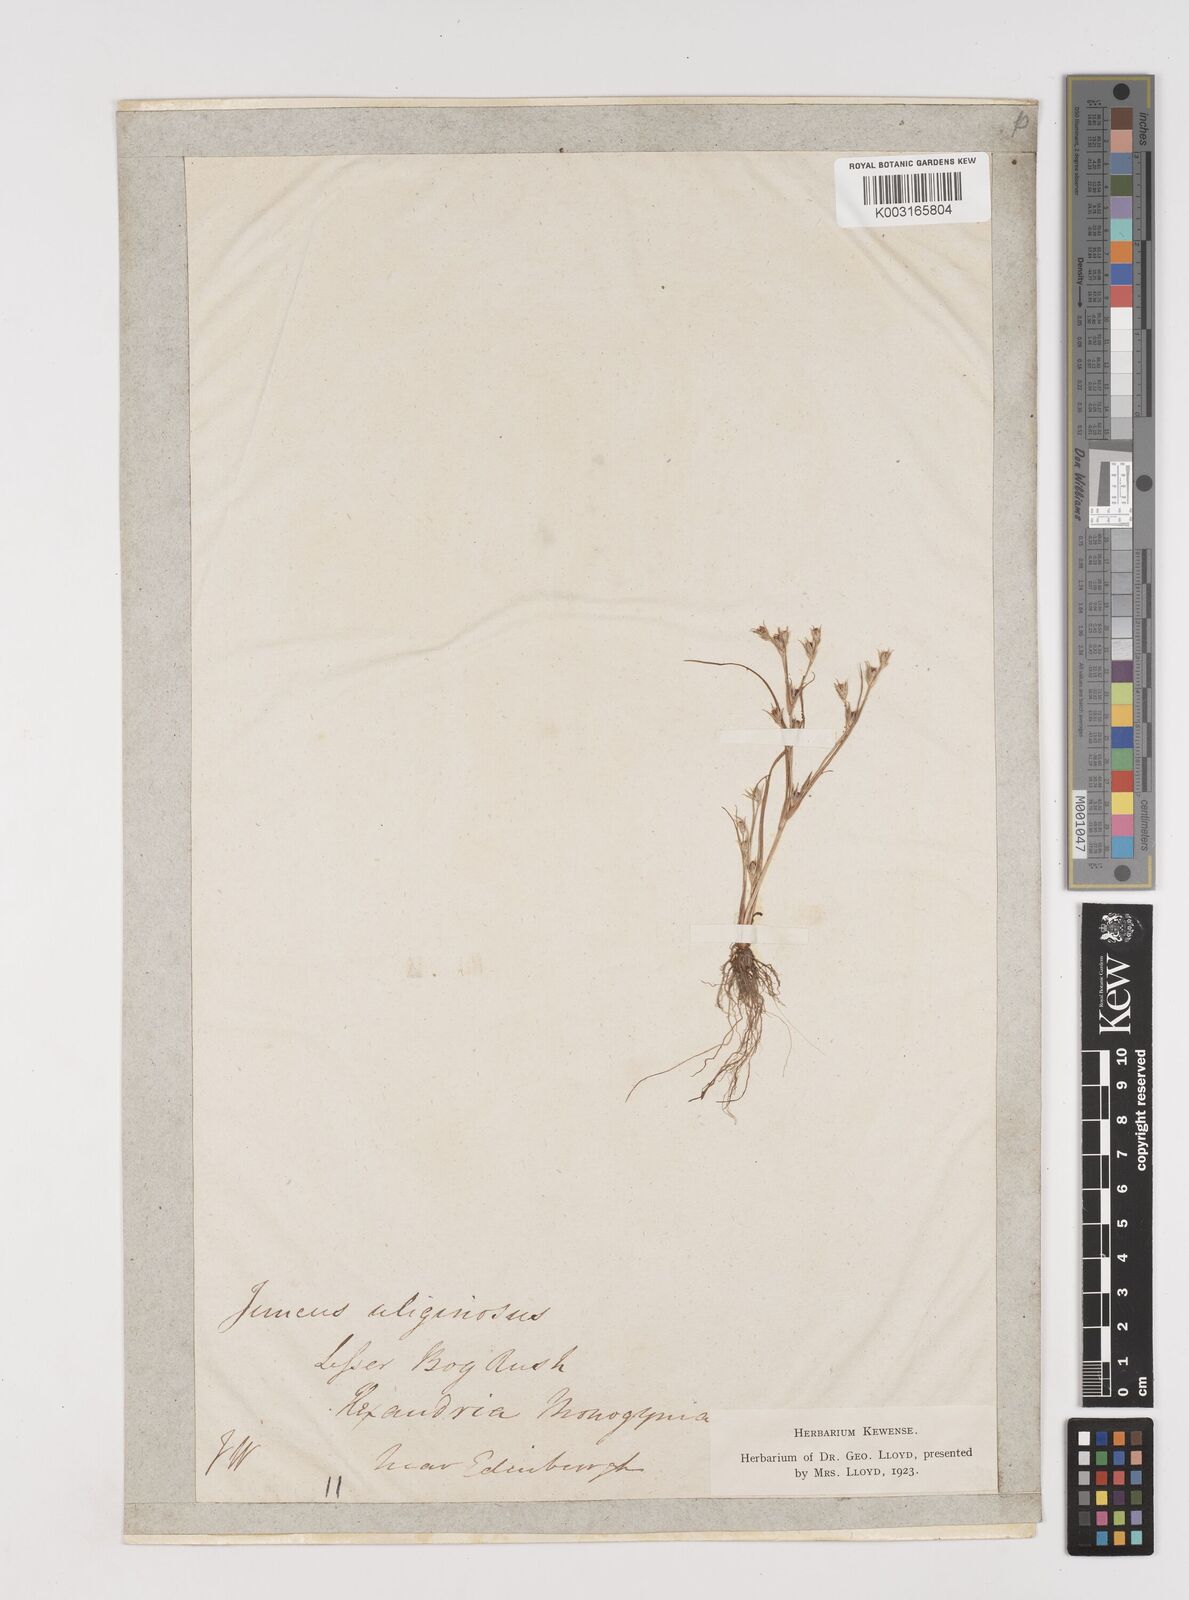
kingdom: Plantae
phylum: Tracheophyta
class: Liliopsida
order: Poales
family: Juncaceae
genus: Juncus
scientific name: Juncus bufonius
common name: Toad rush
